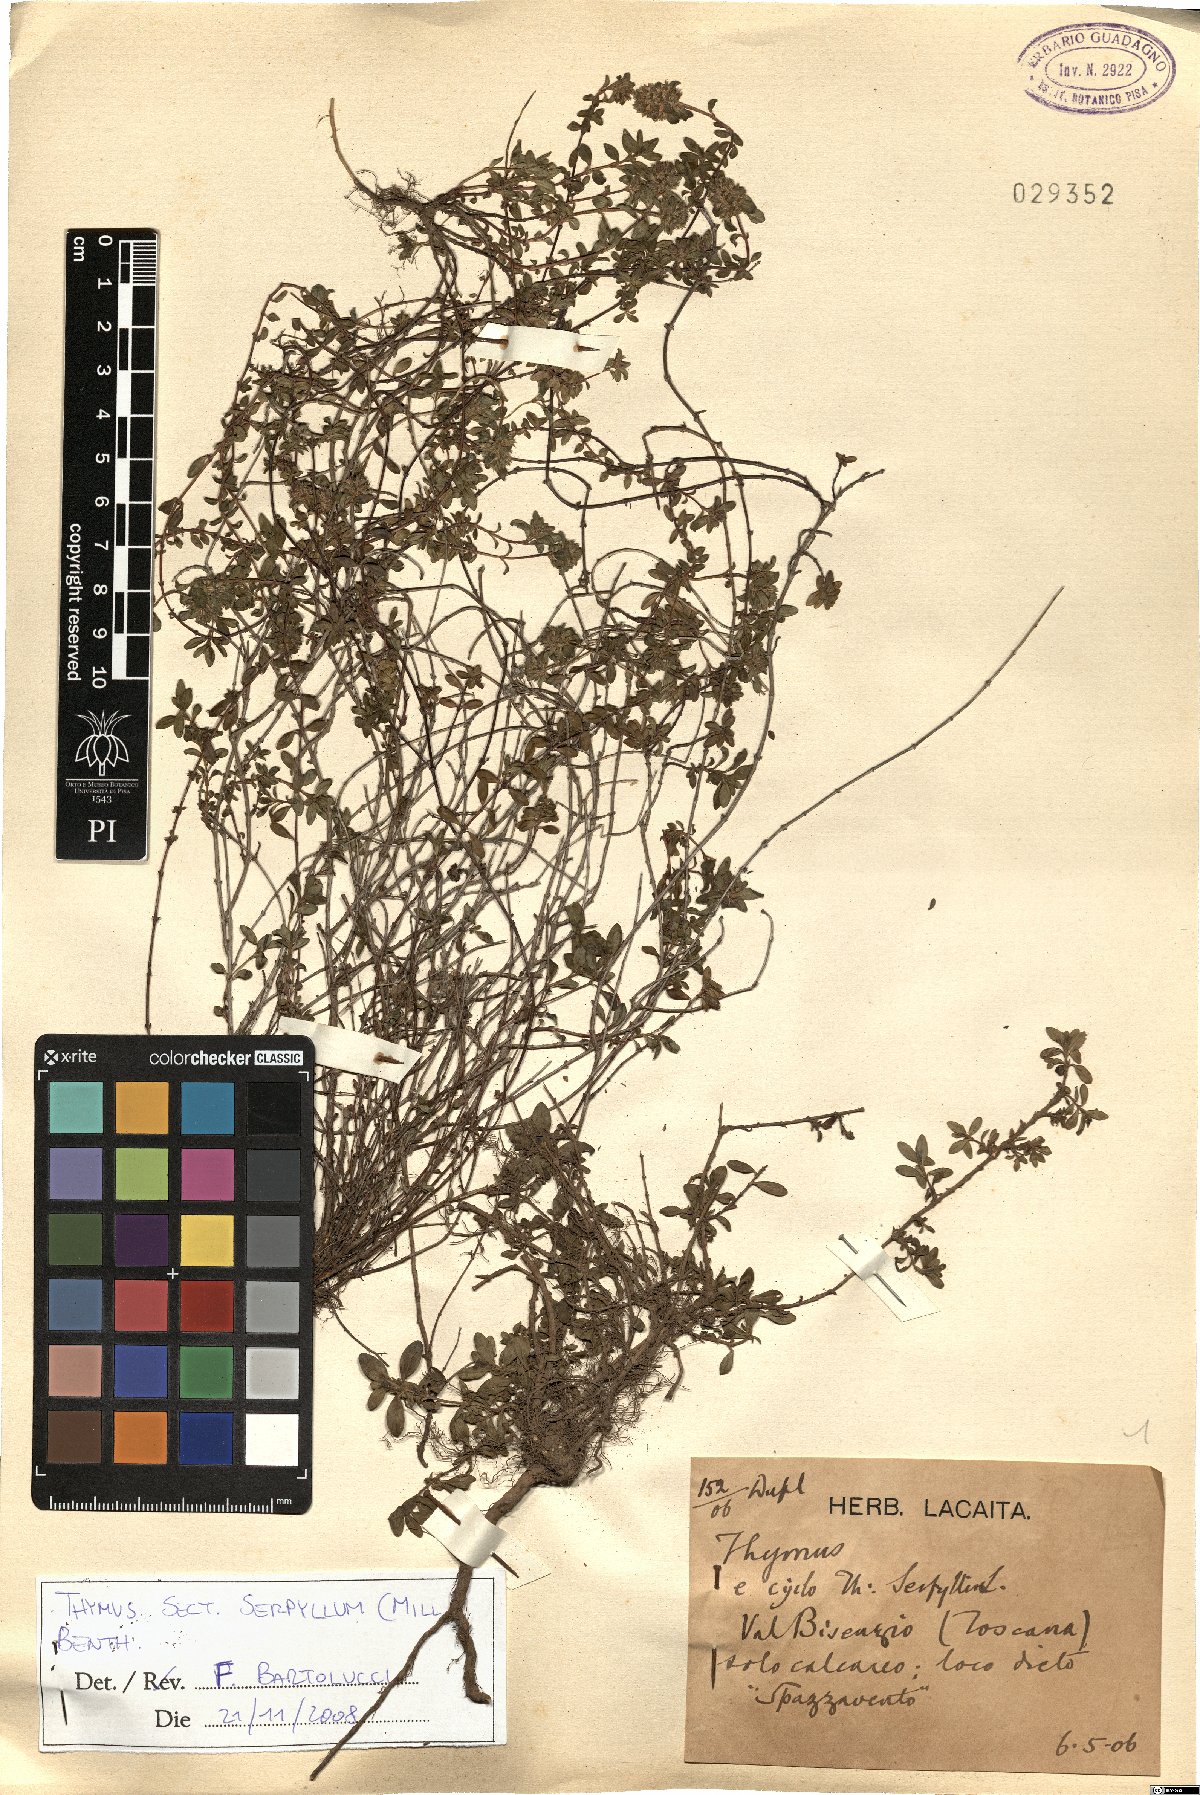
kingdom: Plantae
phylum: Tracheophyta
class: Magnoliopsida
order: Lamiales
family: Lamiaceae
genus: Thymus
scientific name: Thymus serpyllum
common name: Breckland thyme
